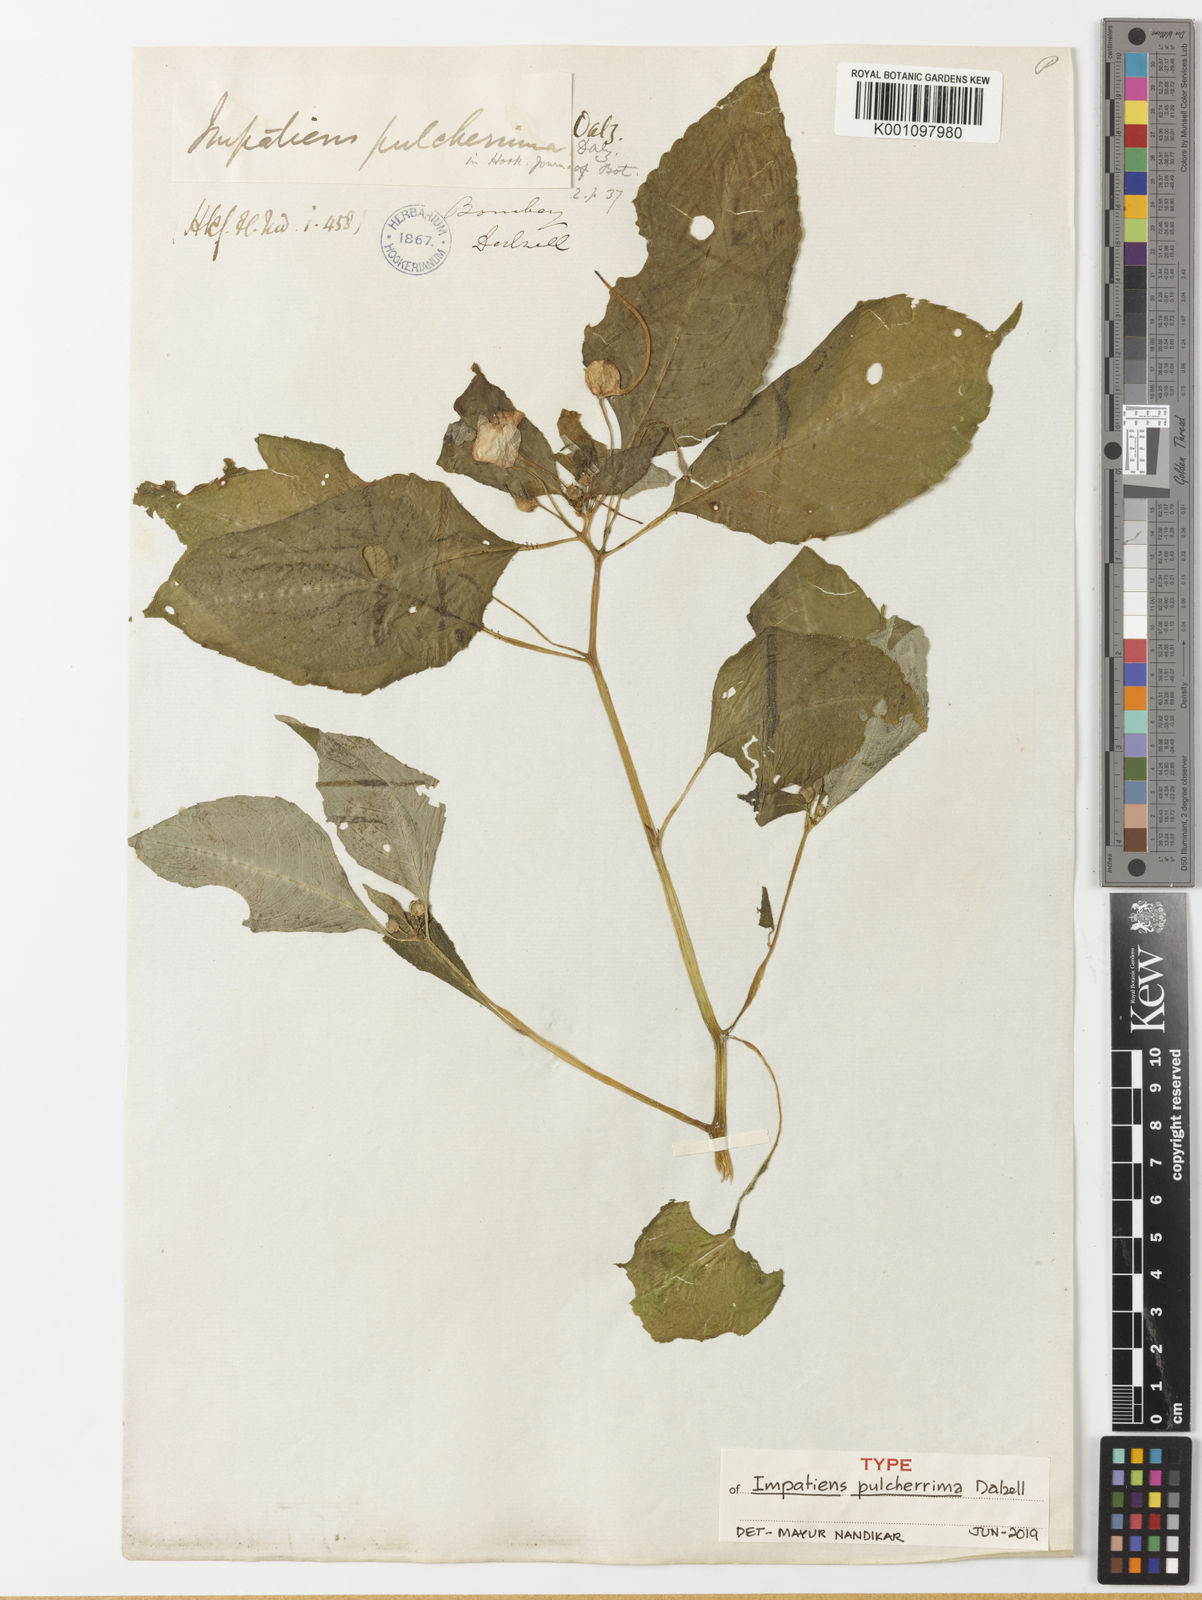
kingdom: Plantae
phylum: Tracheophyta
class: Magnoliopsida
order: Ericales
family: Balsaminaceae
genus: Impatiens
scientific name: Impatiens pulcherrima
